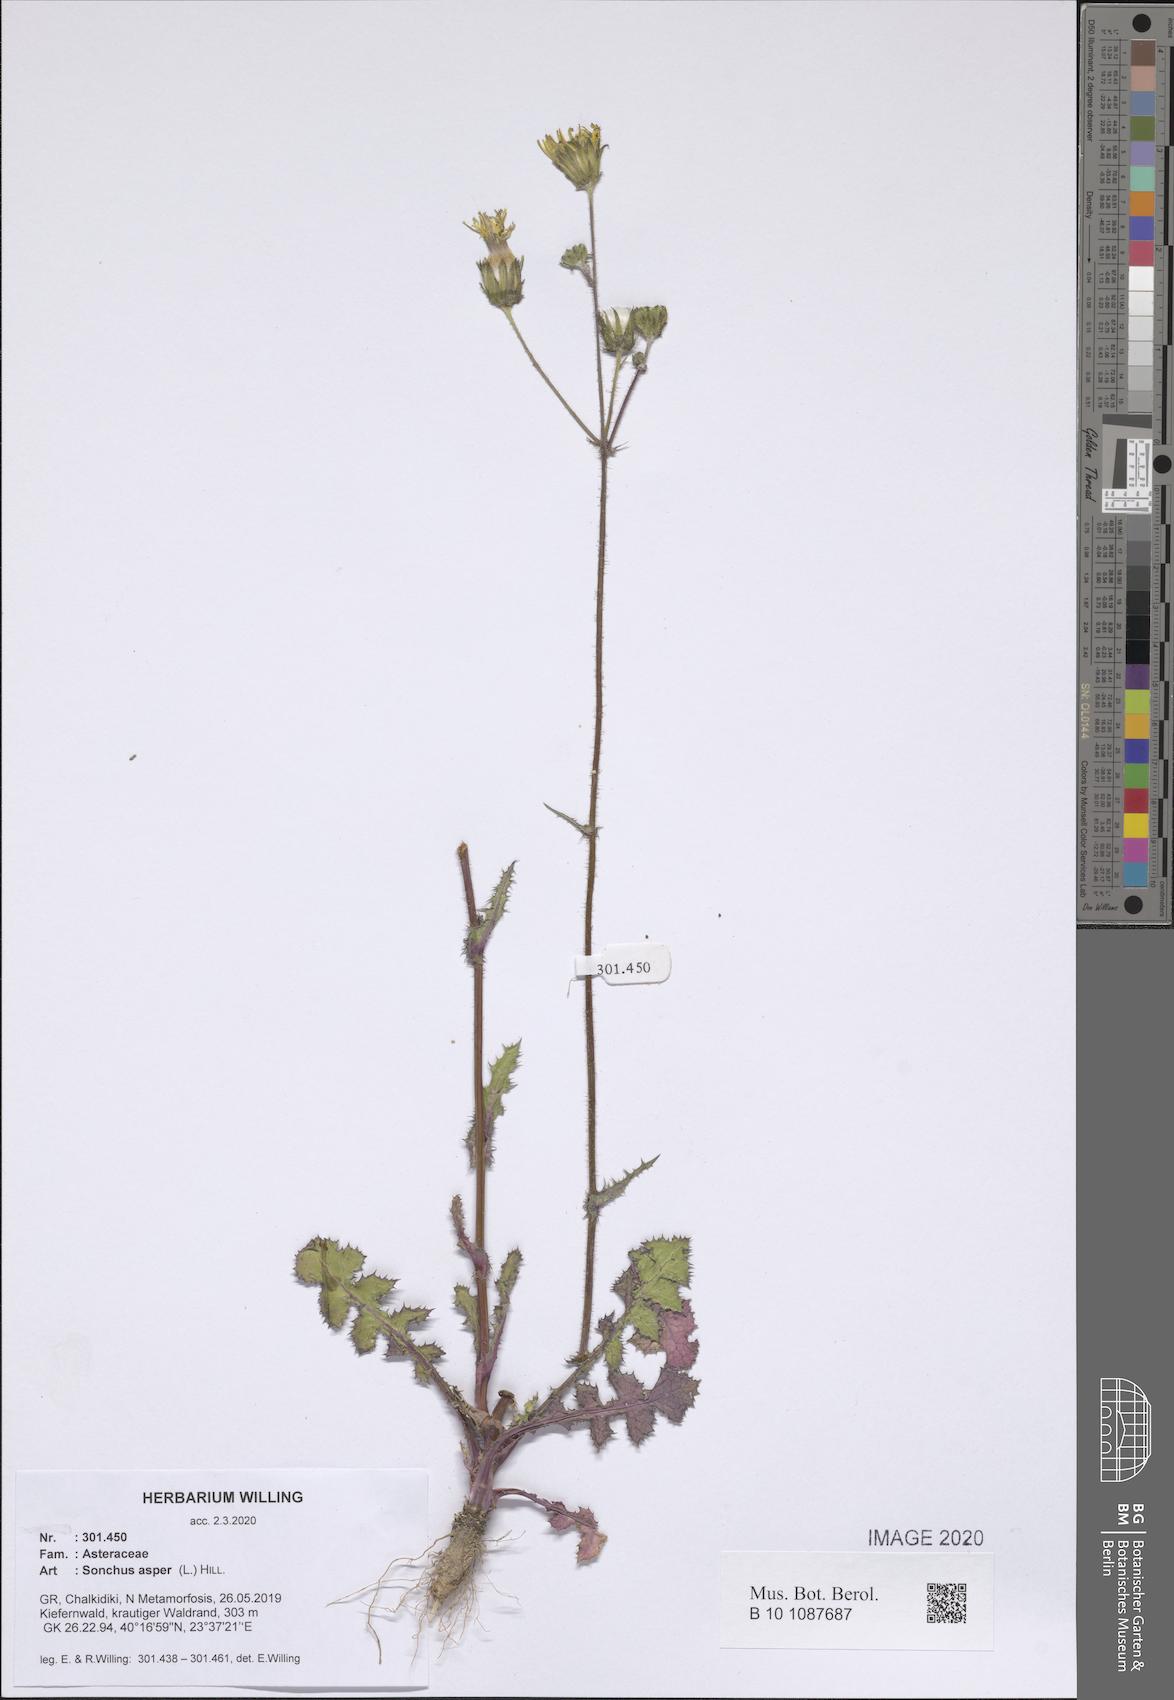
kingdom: Plantae
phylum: Tracheophyta
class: Magnoliopsida
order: Asterales
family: Asteraceae
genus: Sonchus
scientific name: Sonchus asper
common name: Prickly sow-thistle
